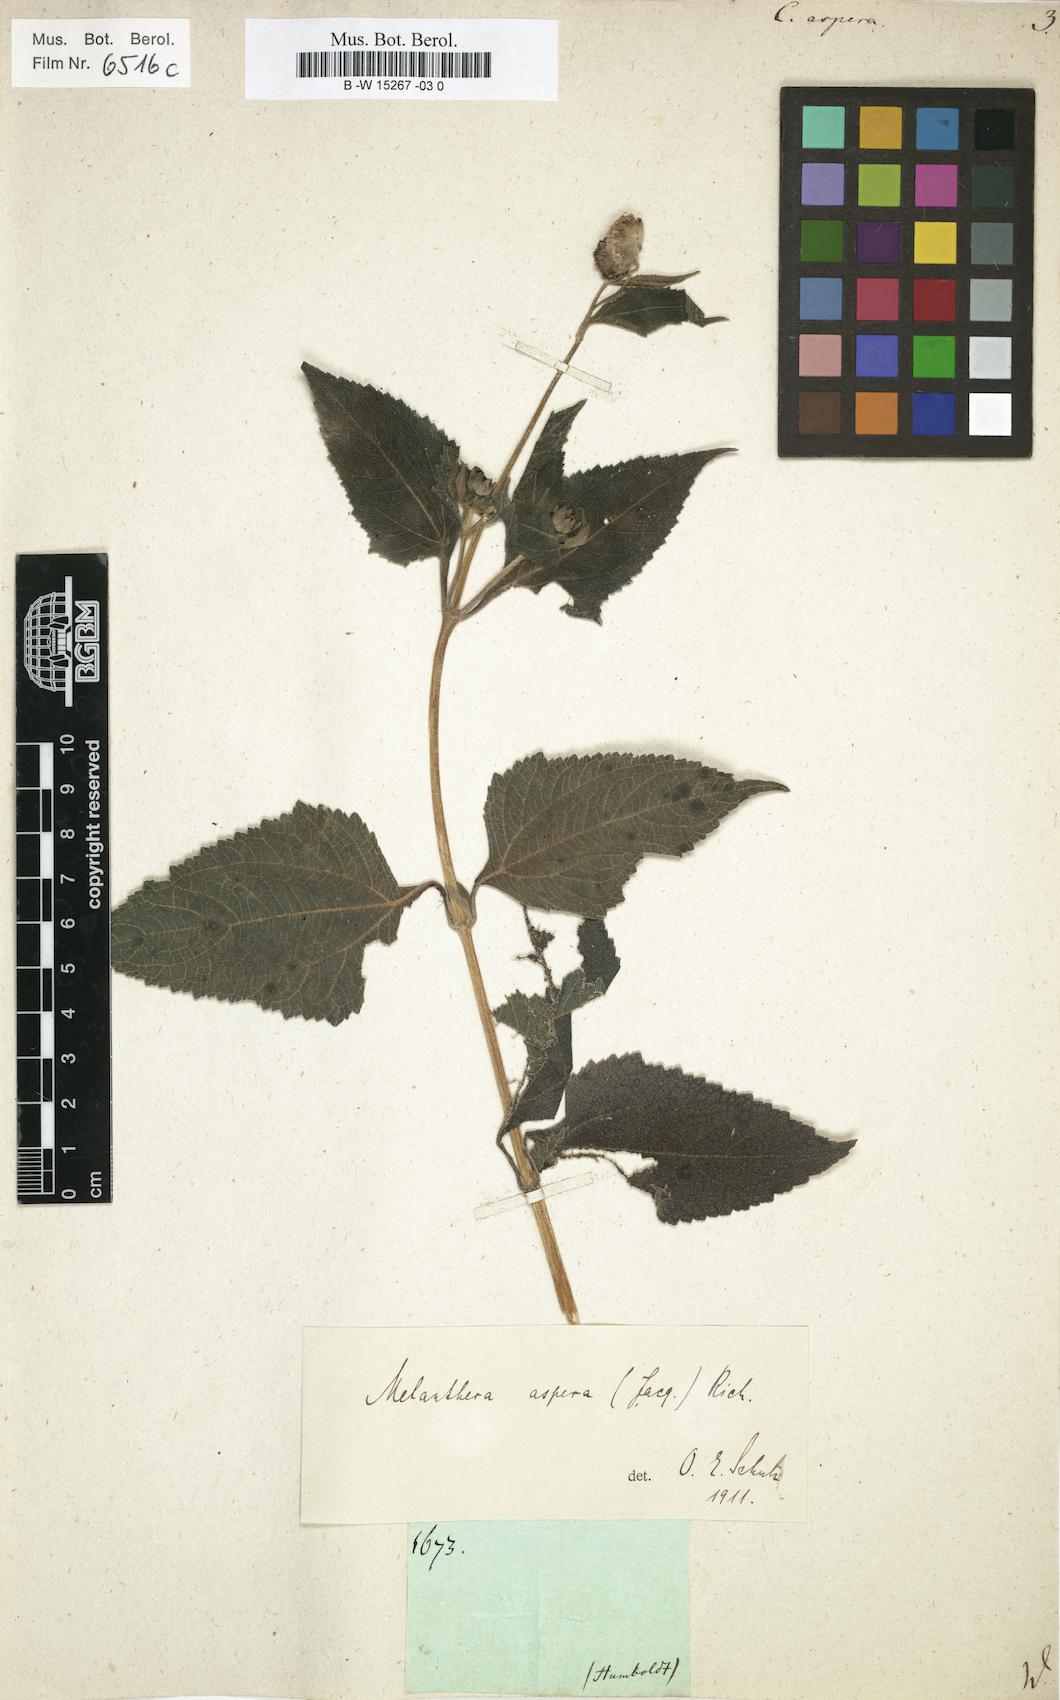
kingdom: Plantae
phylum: Tracheophyta
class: Magnoliopsida
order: Asterales
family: Asteraceae
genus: Melanthera
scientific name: Melanthera nivea
